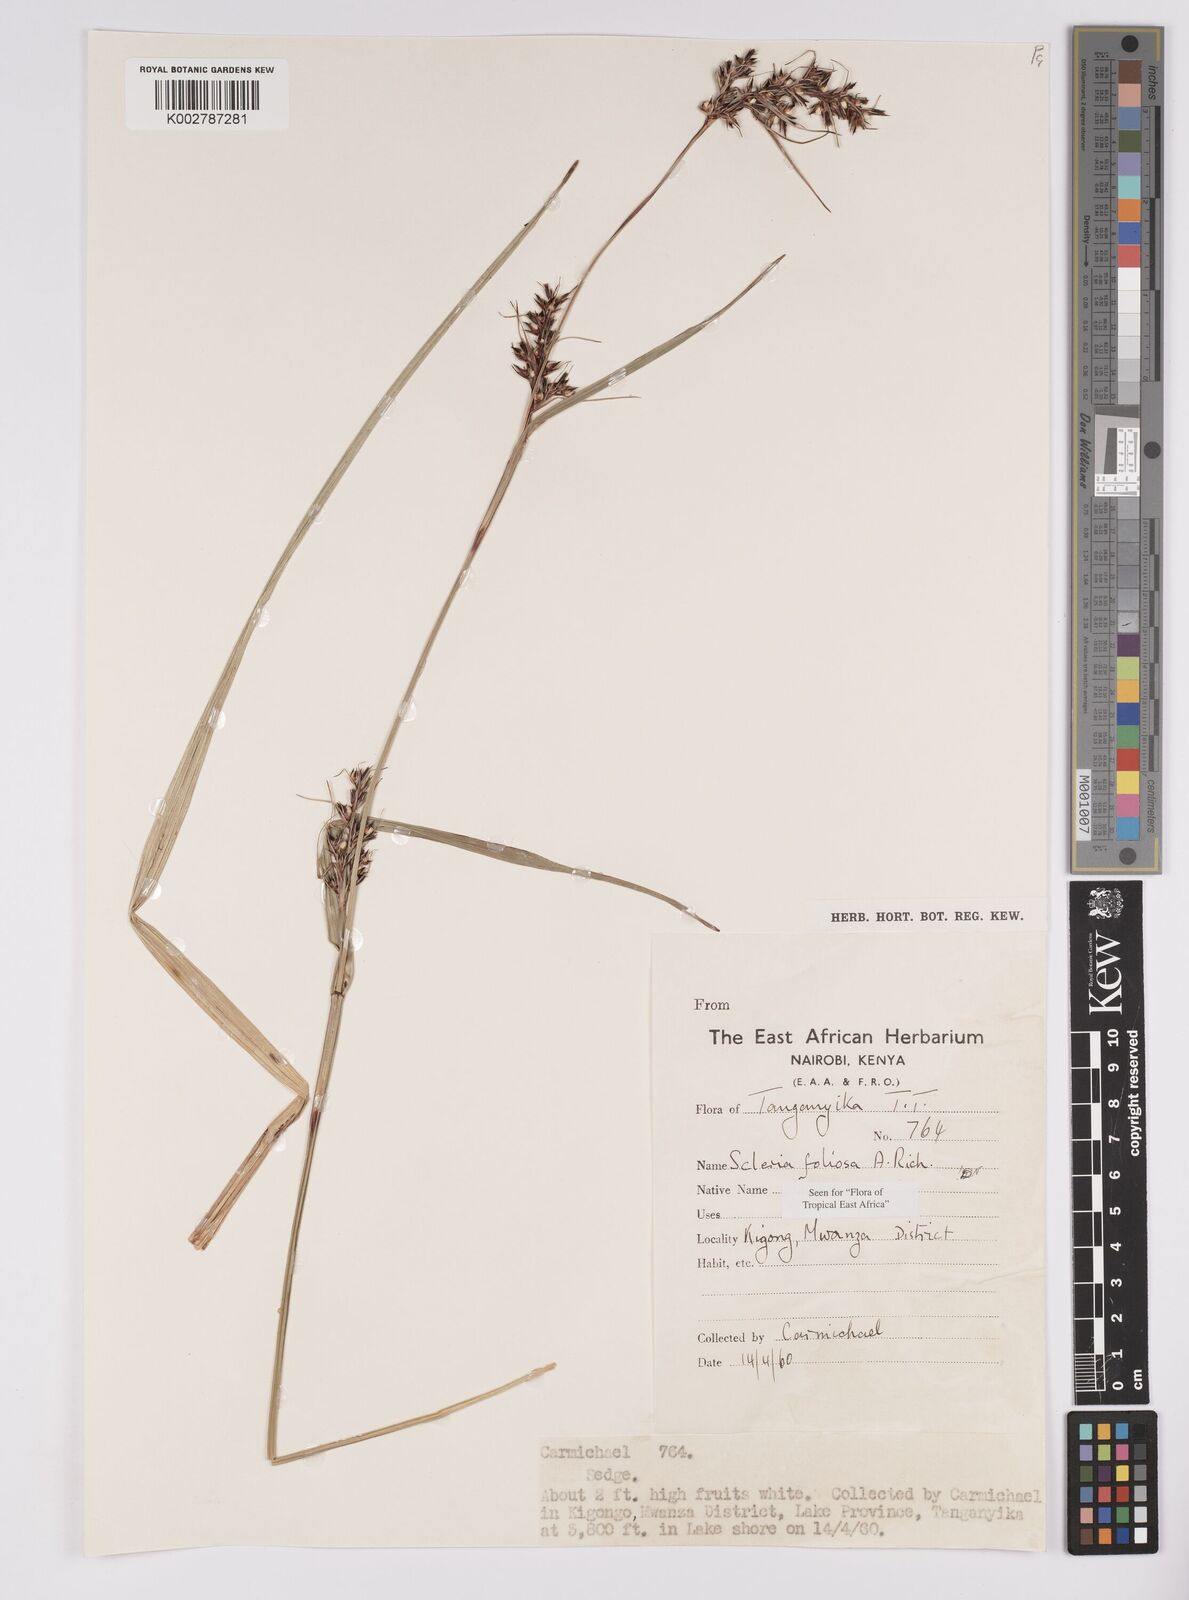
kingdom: Plantae
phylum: Tracheophyta
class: Liliopsida
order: Poales
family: Cyperaceae
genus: Scleria
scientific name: Scleria foliosa
